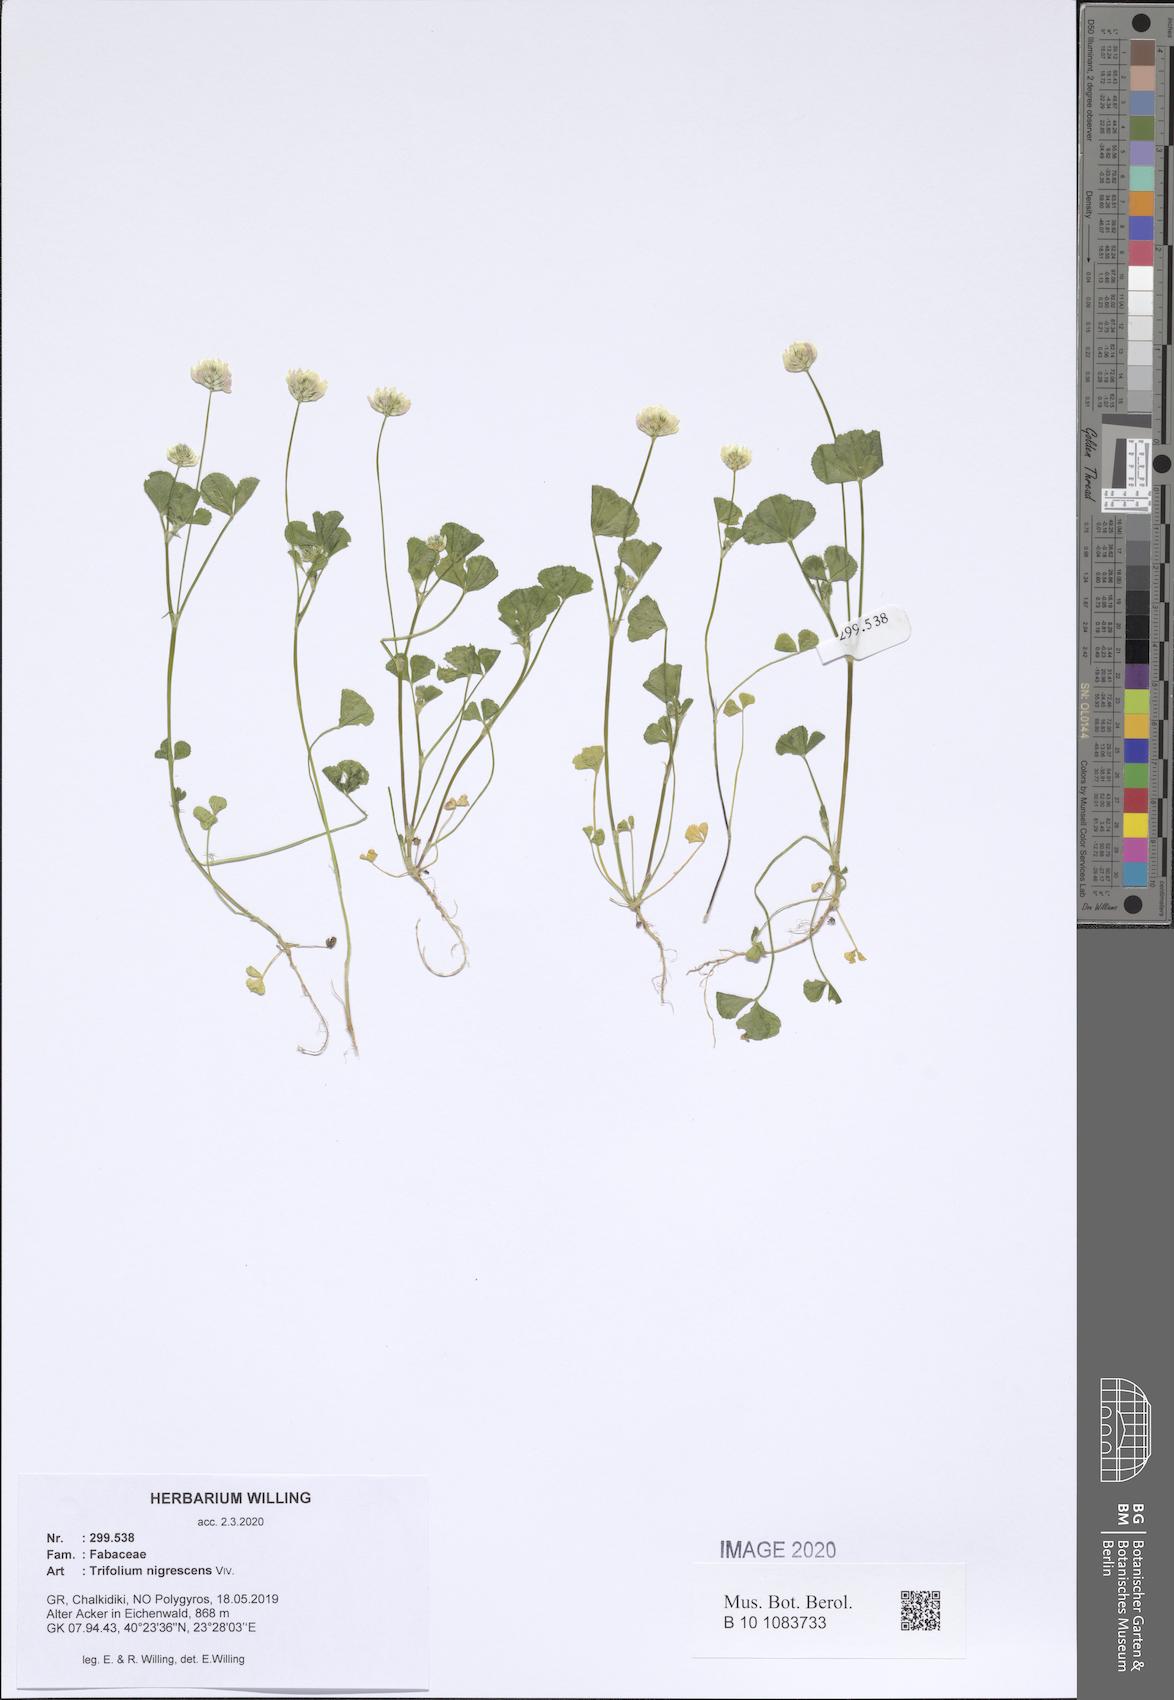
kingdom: Plantae
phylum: Tracheophyta
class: Magnoliopsida
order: Fabales
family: Fabaceae
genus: Trifolium
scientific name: Trifolium nigrescens
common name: Small white clover
